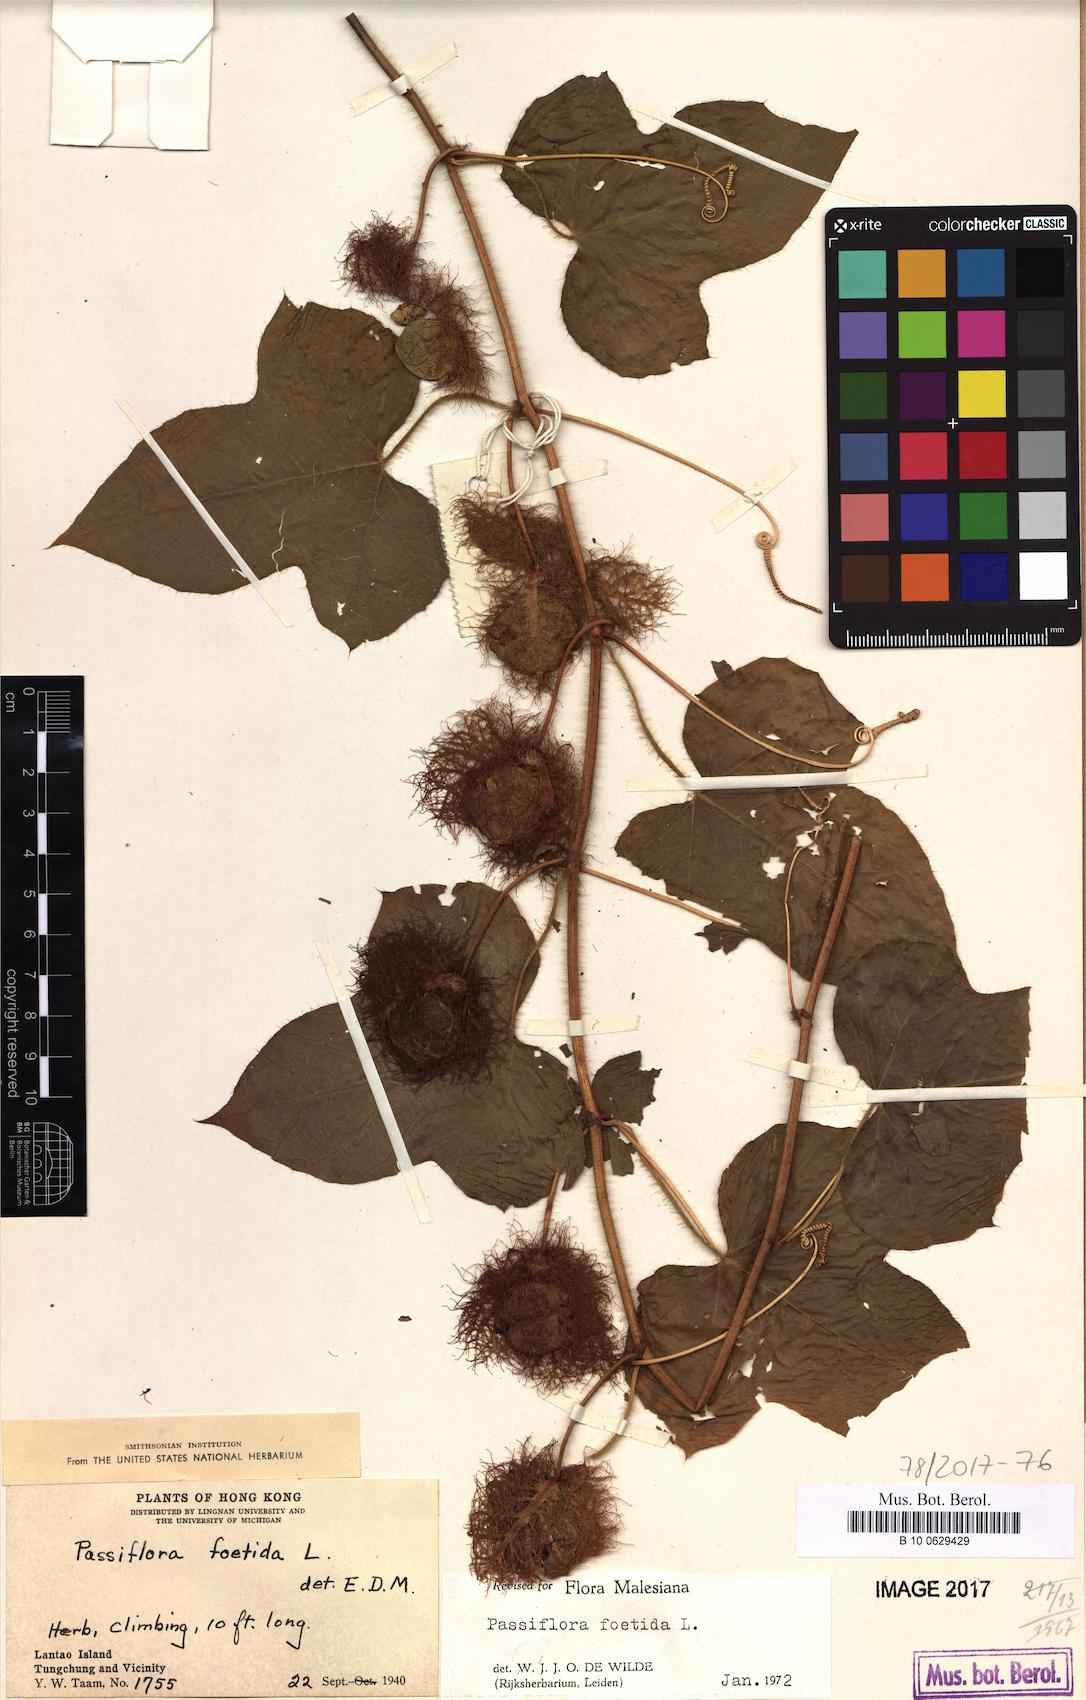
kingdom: Plantae
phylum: Tracheophyta
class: Magnoliopsida
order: Malpighiales
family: Passifloraceae
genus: Passiflora
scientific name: Passiflora foetida
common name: Fetid passionflower
